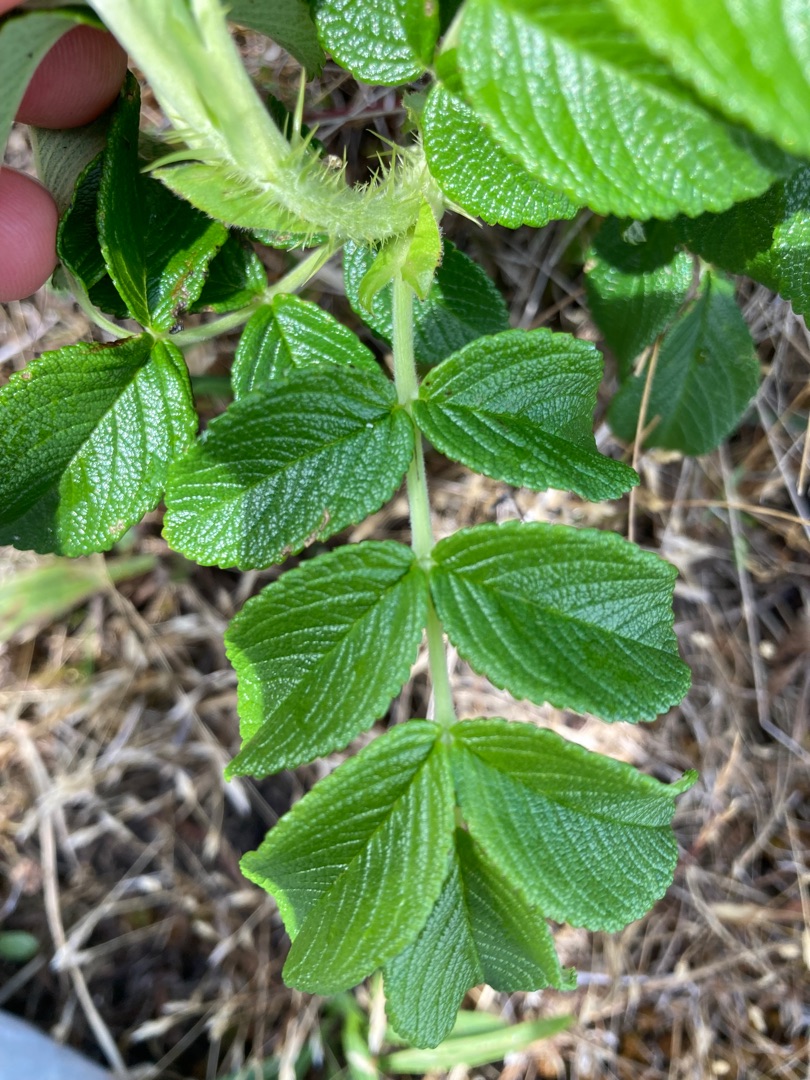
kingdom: Plantae
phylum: Tracheophyta
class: Magnoliopsida
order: Rosales
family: Rosaceae
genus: Rosa
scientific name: Rosa rugosa
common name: Rynket rose
